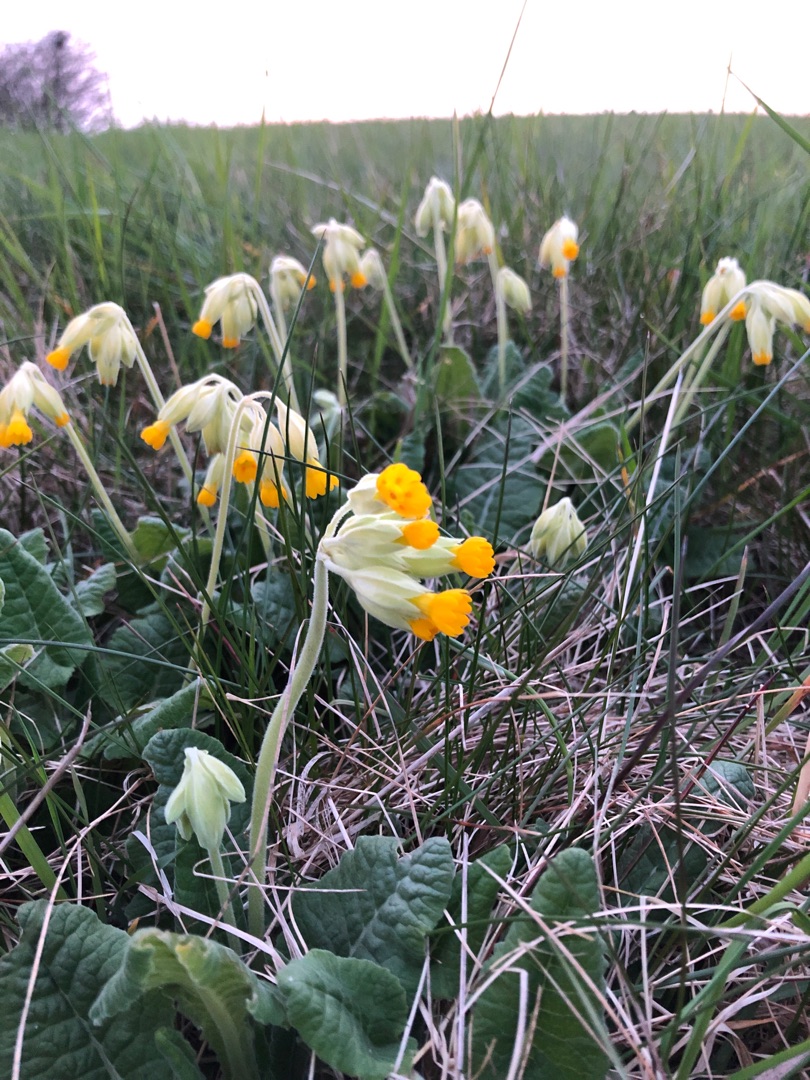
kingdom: Plantae
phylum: Tracheophyta
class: Magnoliopsida
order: Ericales
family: Primulaceae
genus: Primula
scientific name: Primula veris
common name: Hulkravet kodriver
